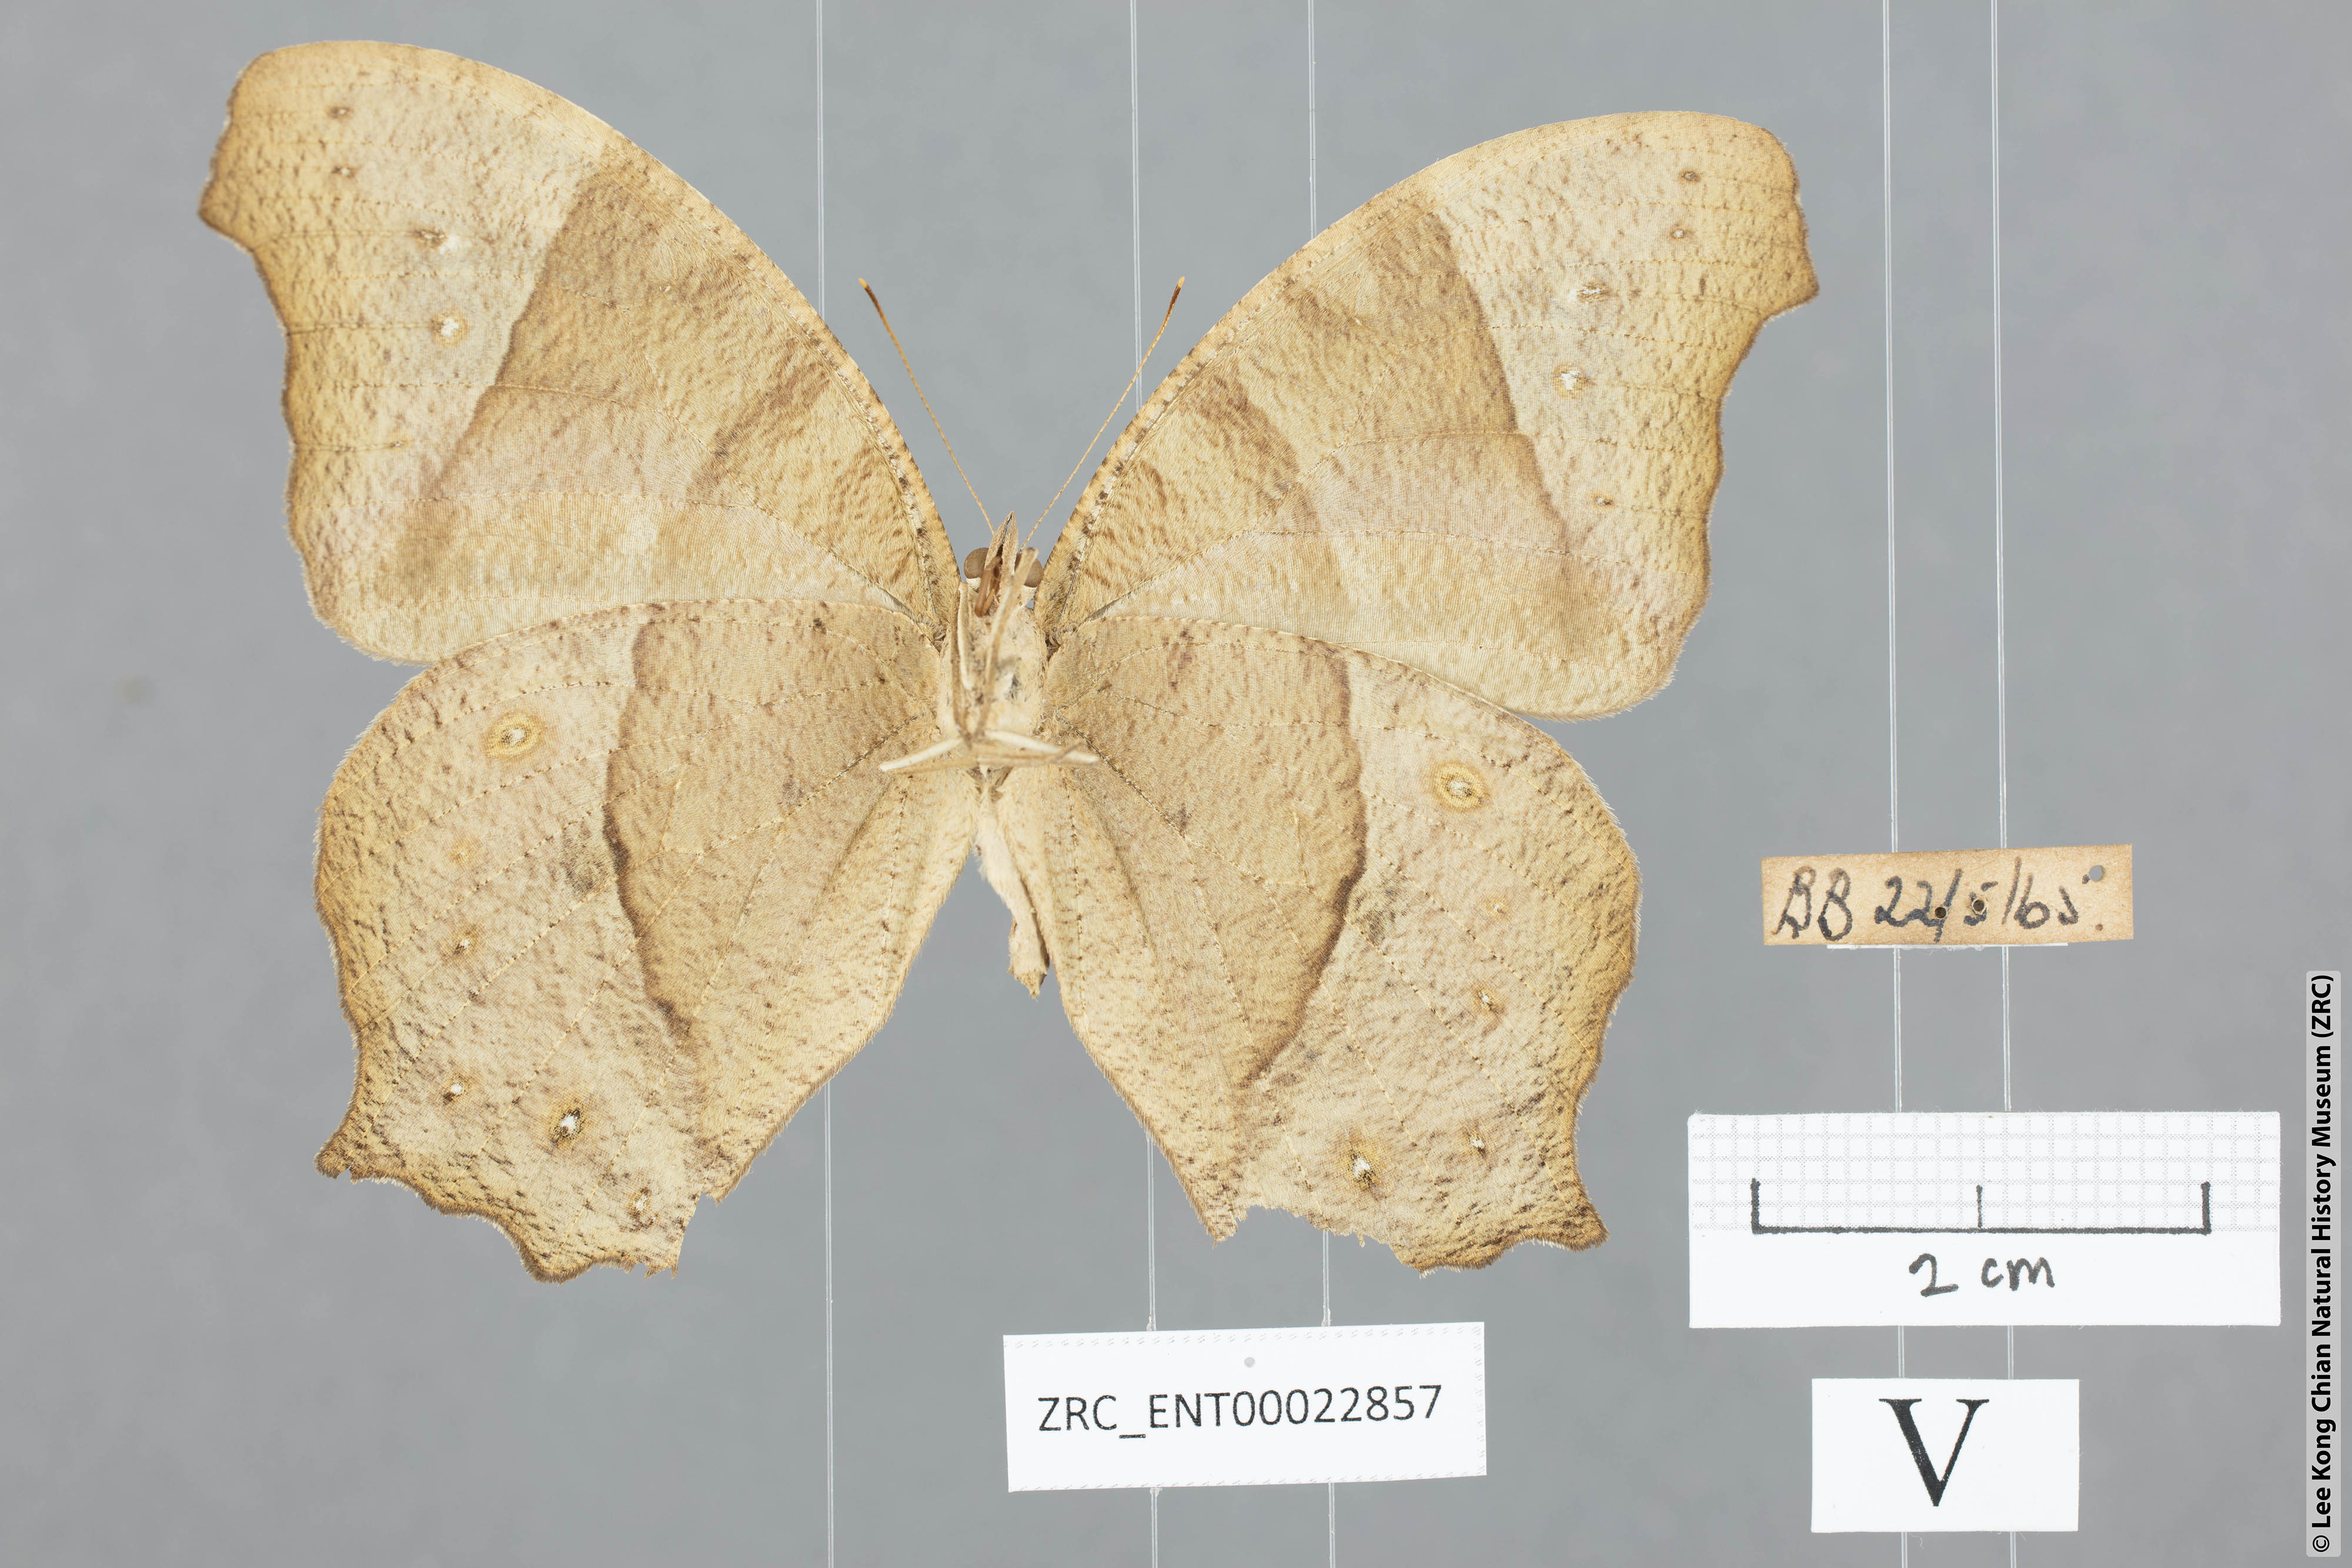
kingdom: Animalia
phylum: Arthropoda
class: Insecta
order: Lepidoptera
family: Nymphalidae
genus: Melanitis
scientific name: Melanitis leda
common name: Twilight brown
